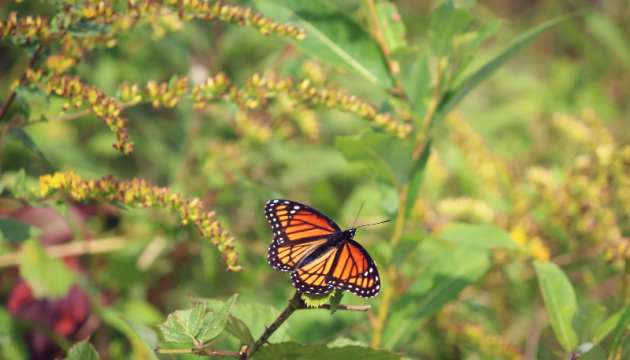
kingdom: Animalia
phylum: Arthropoda
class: Insecta
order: Lepidoptera
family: Nymphalidae
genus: Limenitis
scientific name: Limenitis archippus
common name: Viceroy
